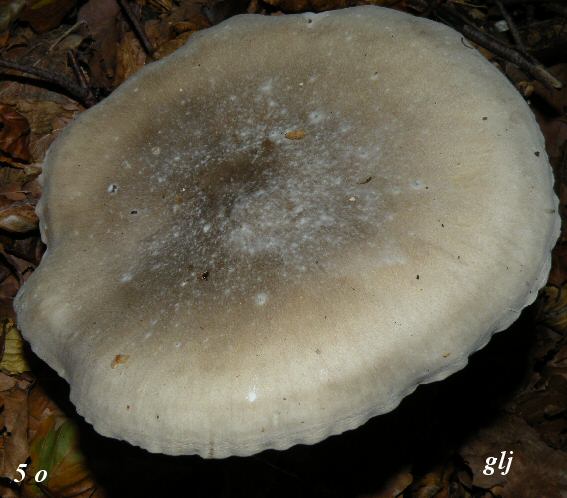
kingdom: Fungi
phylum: Basidiomycota
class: Agaricomycetes
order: Agaricales
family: Tricholomataceae
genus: Clitocybe
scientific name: Clitocybe nebularis
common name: tåge-tragthat
